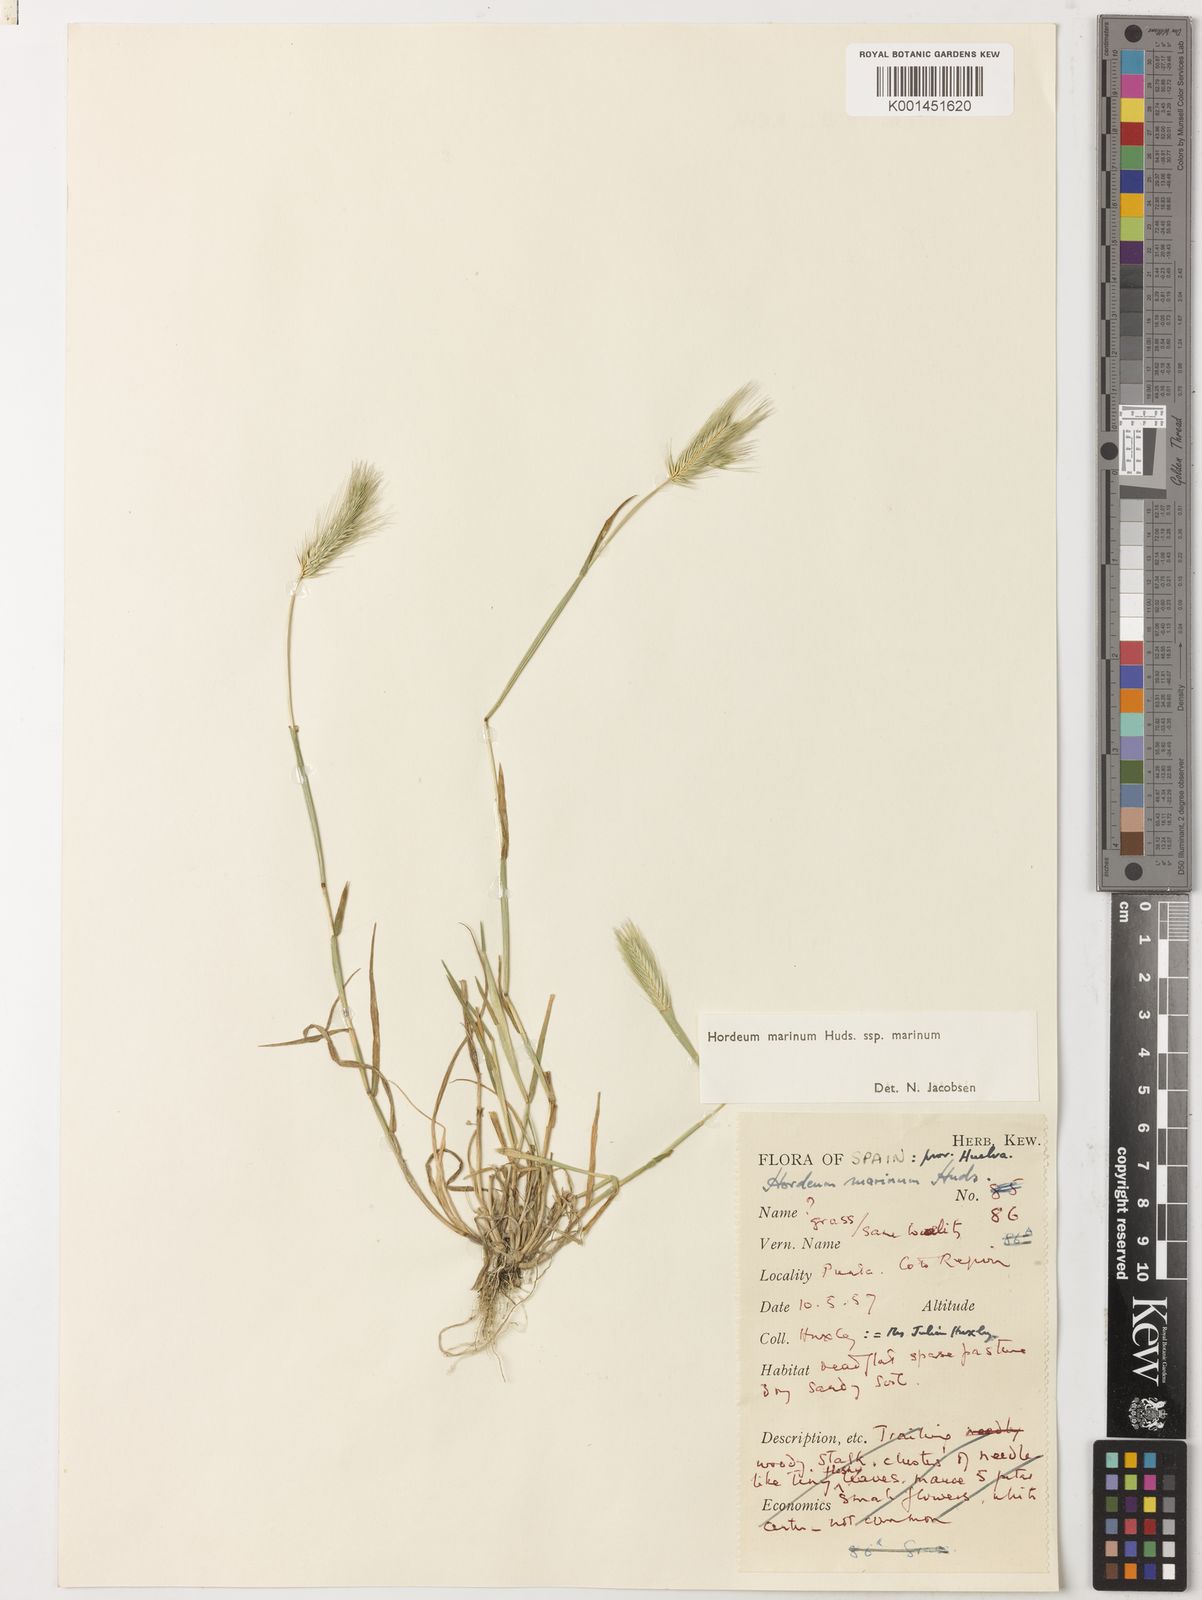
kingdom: Plantae
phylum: Tracheophyta
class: Liliopsida
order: Poales
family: Poaceae
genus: Hordeum
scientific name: Hordeum marinum
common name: Sea barley
